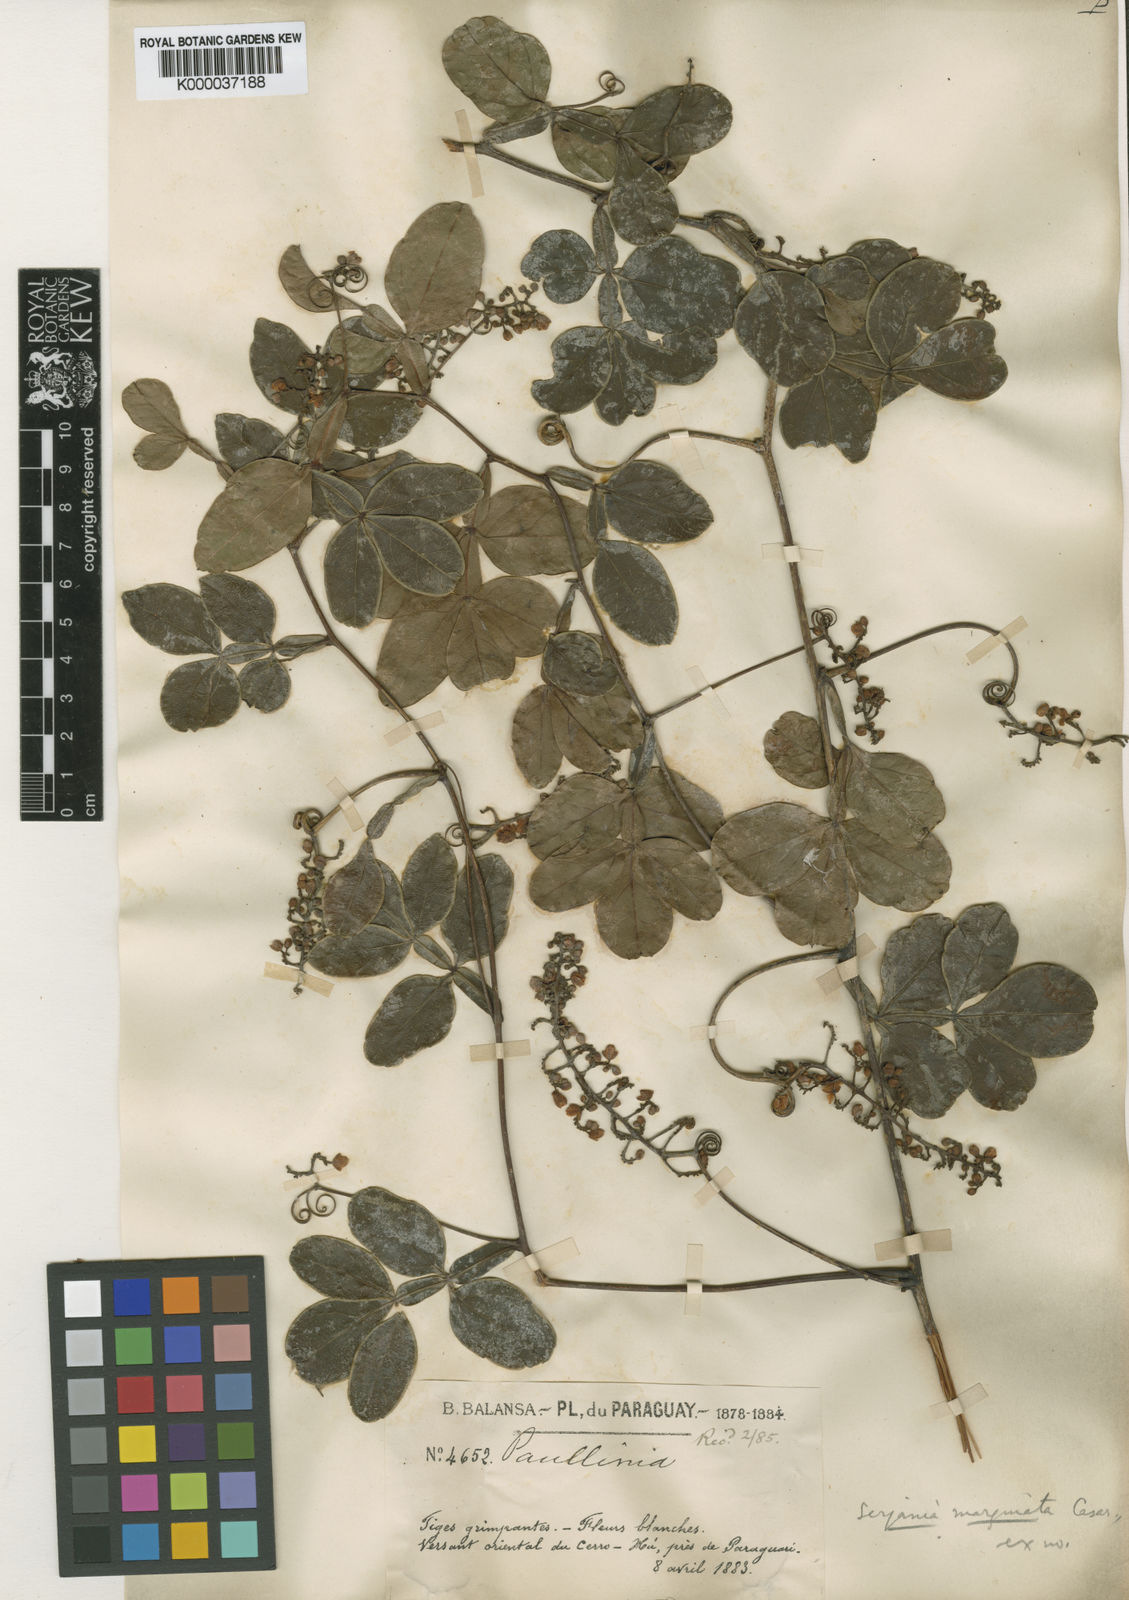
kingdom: Plantae
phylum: Tracheophyta
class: Magnoliopsida
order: Sapindales
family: Sapindaceae
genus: Serjania
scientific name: Serjania marginata
